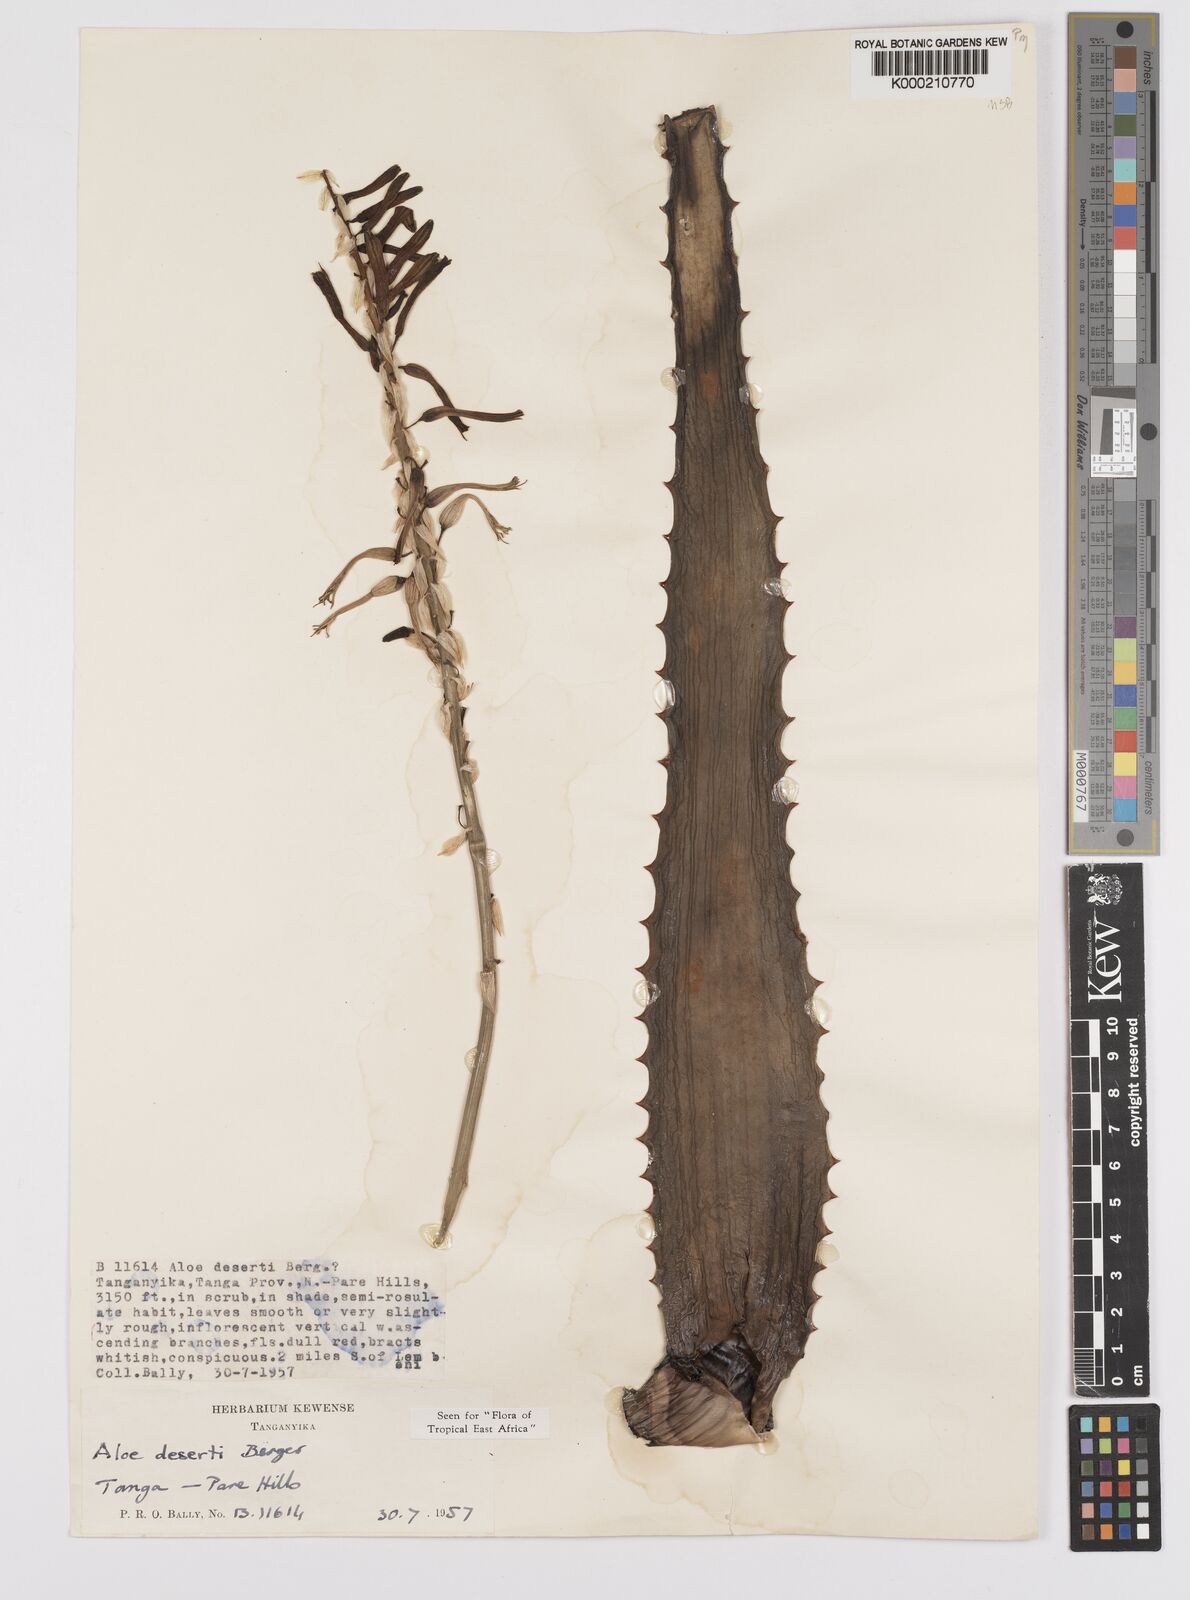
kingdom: Plantae
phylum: Tracheophyta
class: Liliopsida
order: Asparagales
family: Asphodelaceae
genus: Aloe
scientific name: Aloe deserti
